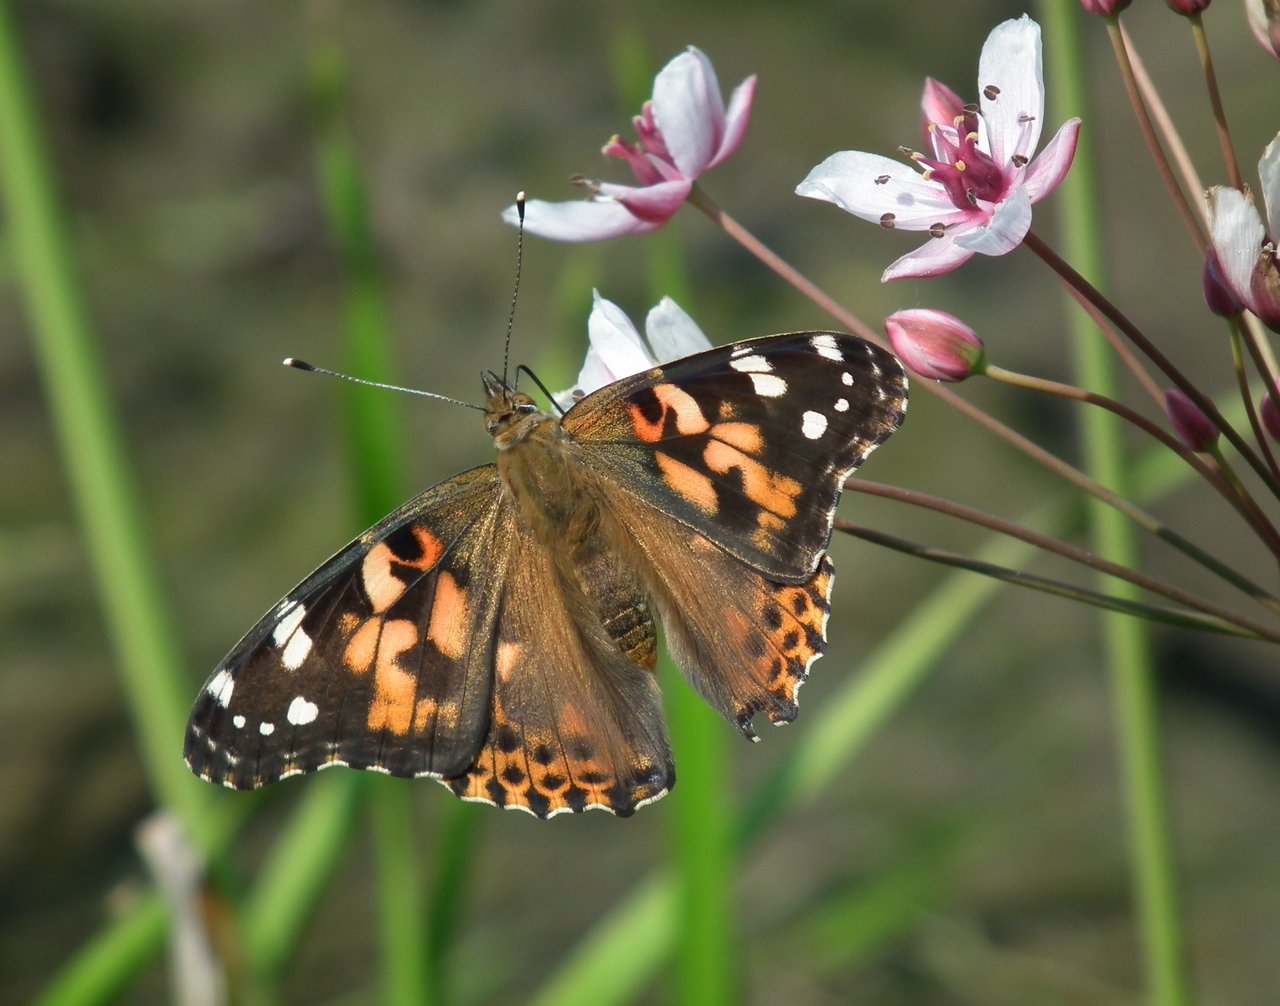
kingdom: Animalia
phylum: Arthropoda
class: Insecta
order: Lepidoptera
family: Nymphalidae
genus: Vanessa
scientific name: Vanessa cardui
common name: Painted Lady
